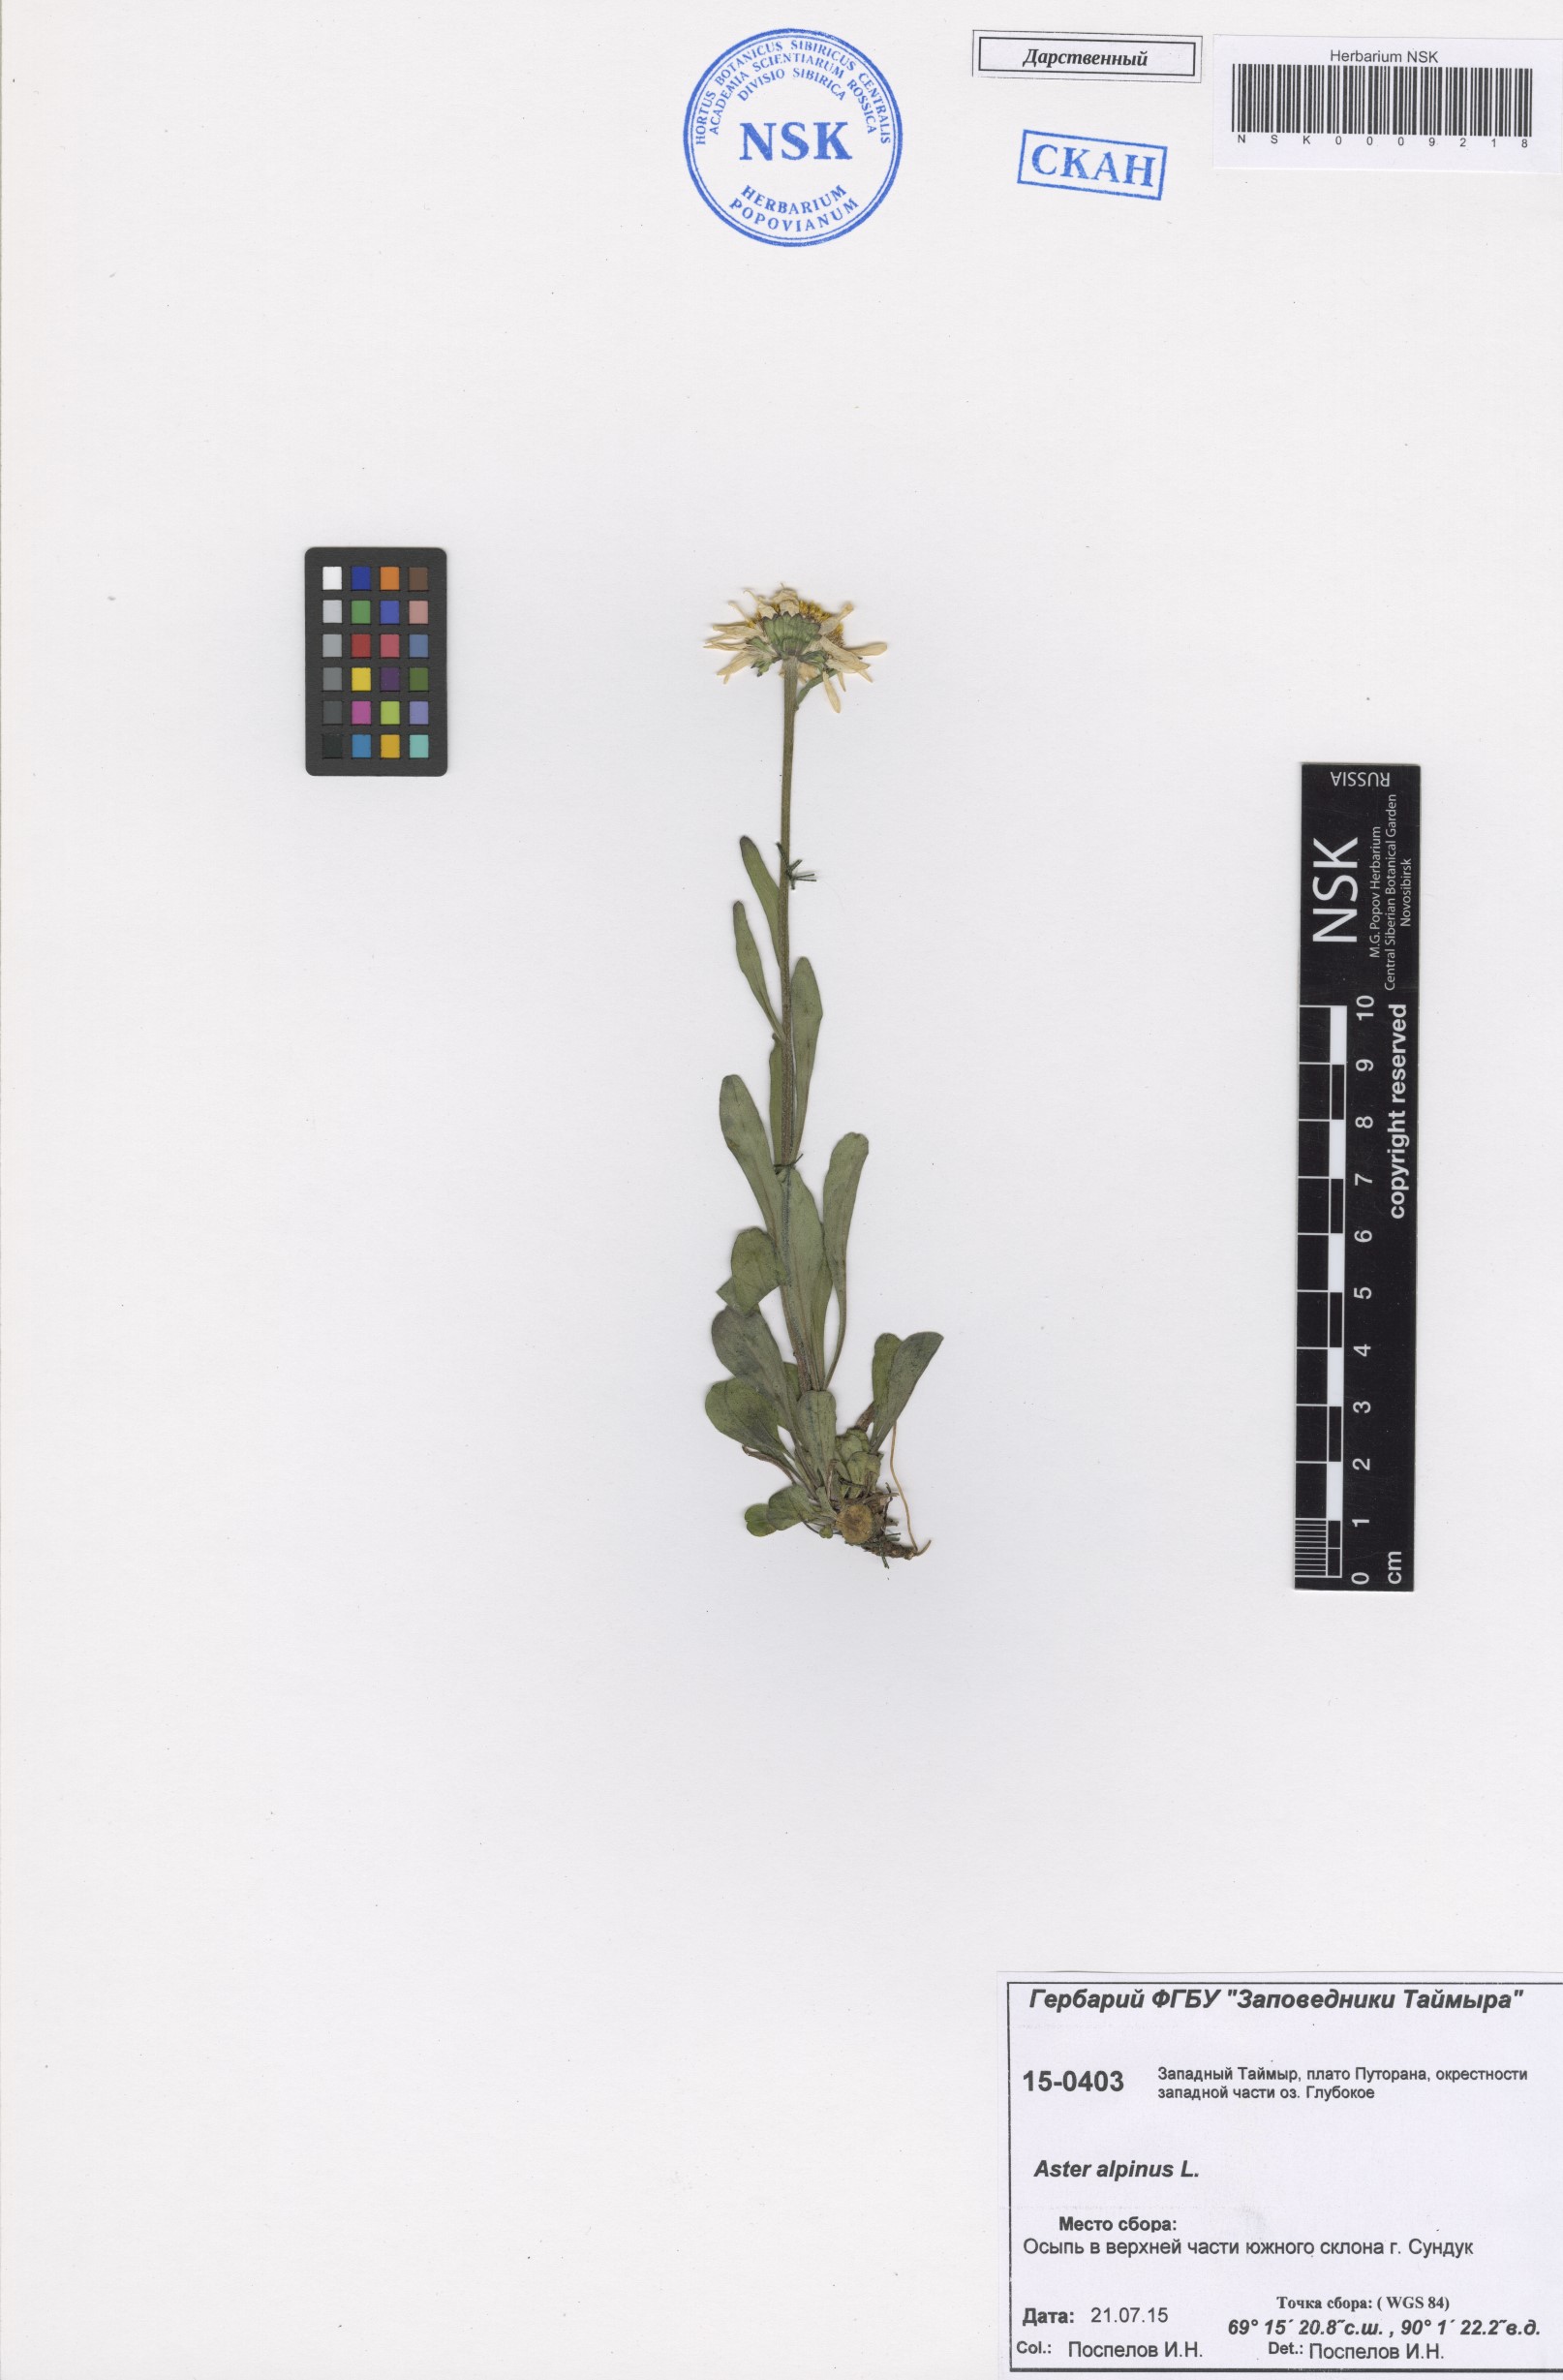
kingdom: Plantae
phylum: Tracheophyta
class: Magnoliopsida
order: Asterales
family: Asteraceae
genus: Aster
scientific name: Aster alpinus
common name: Alpine aster
